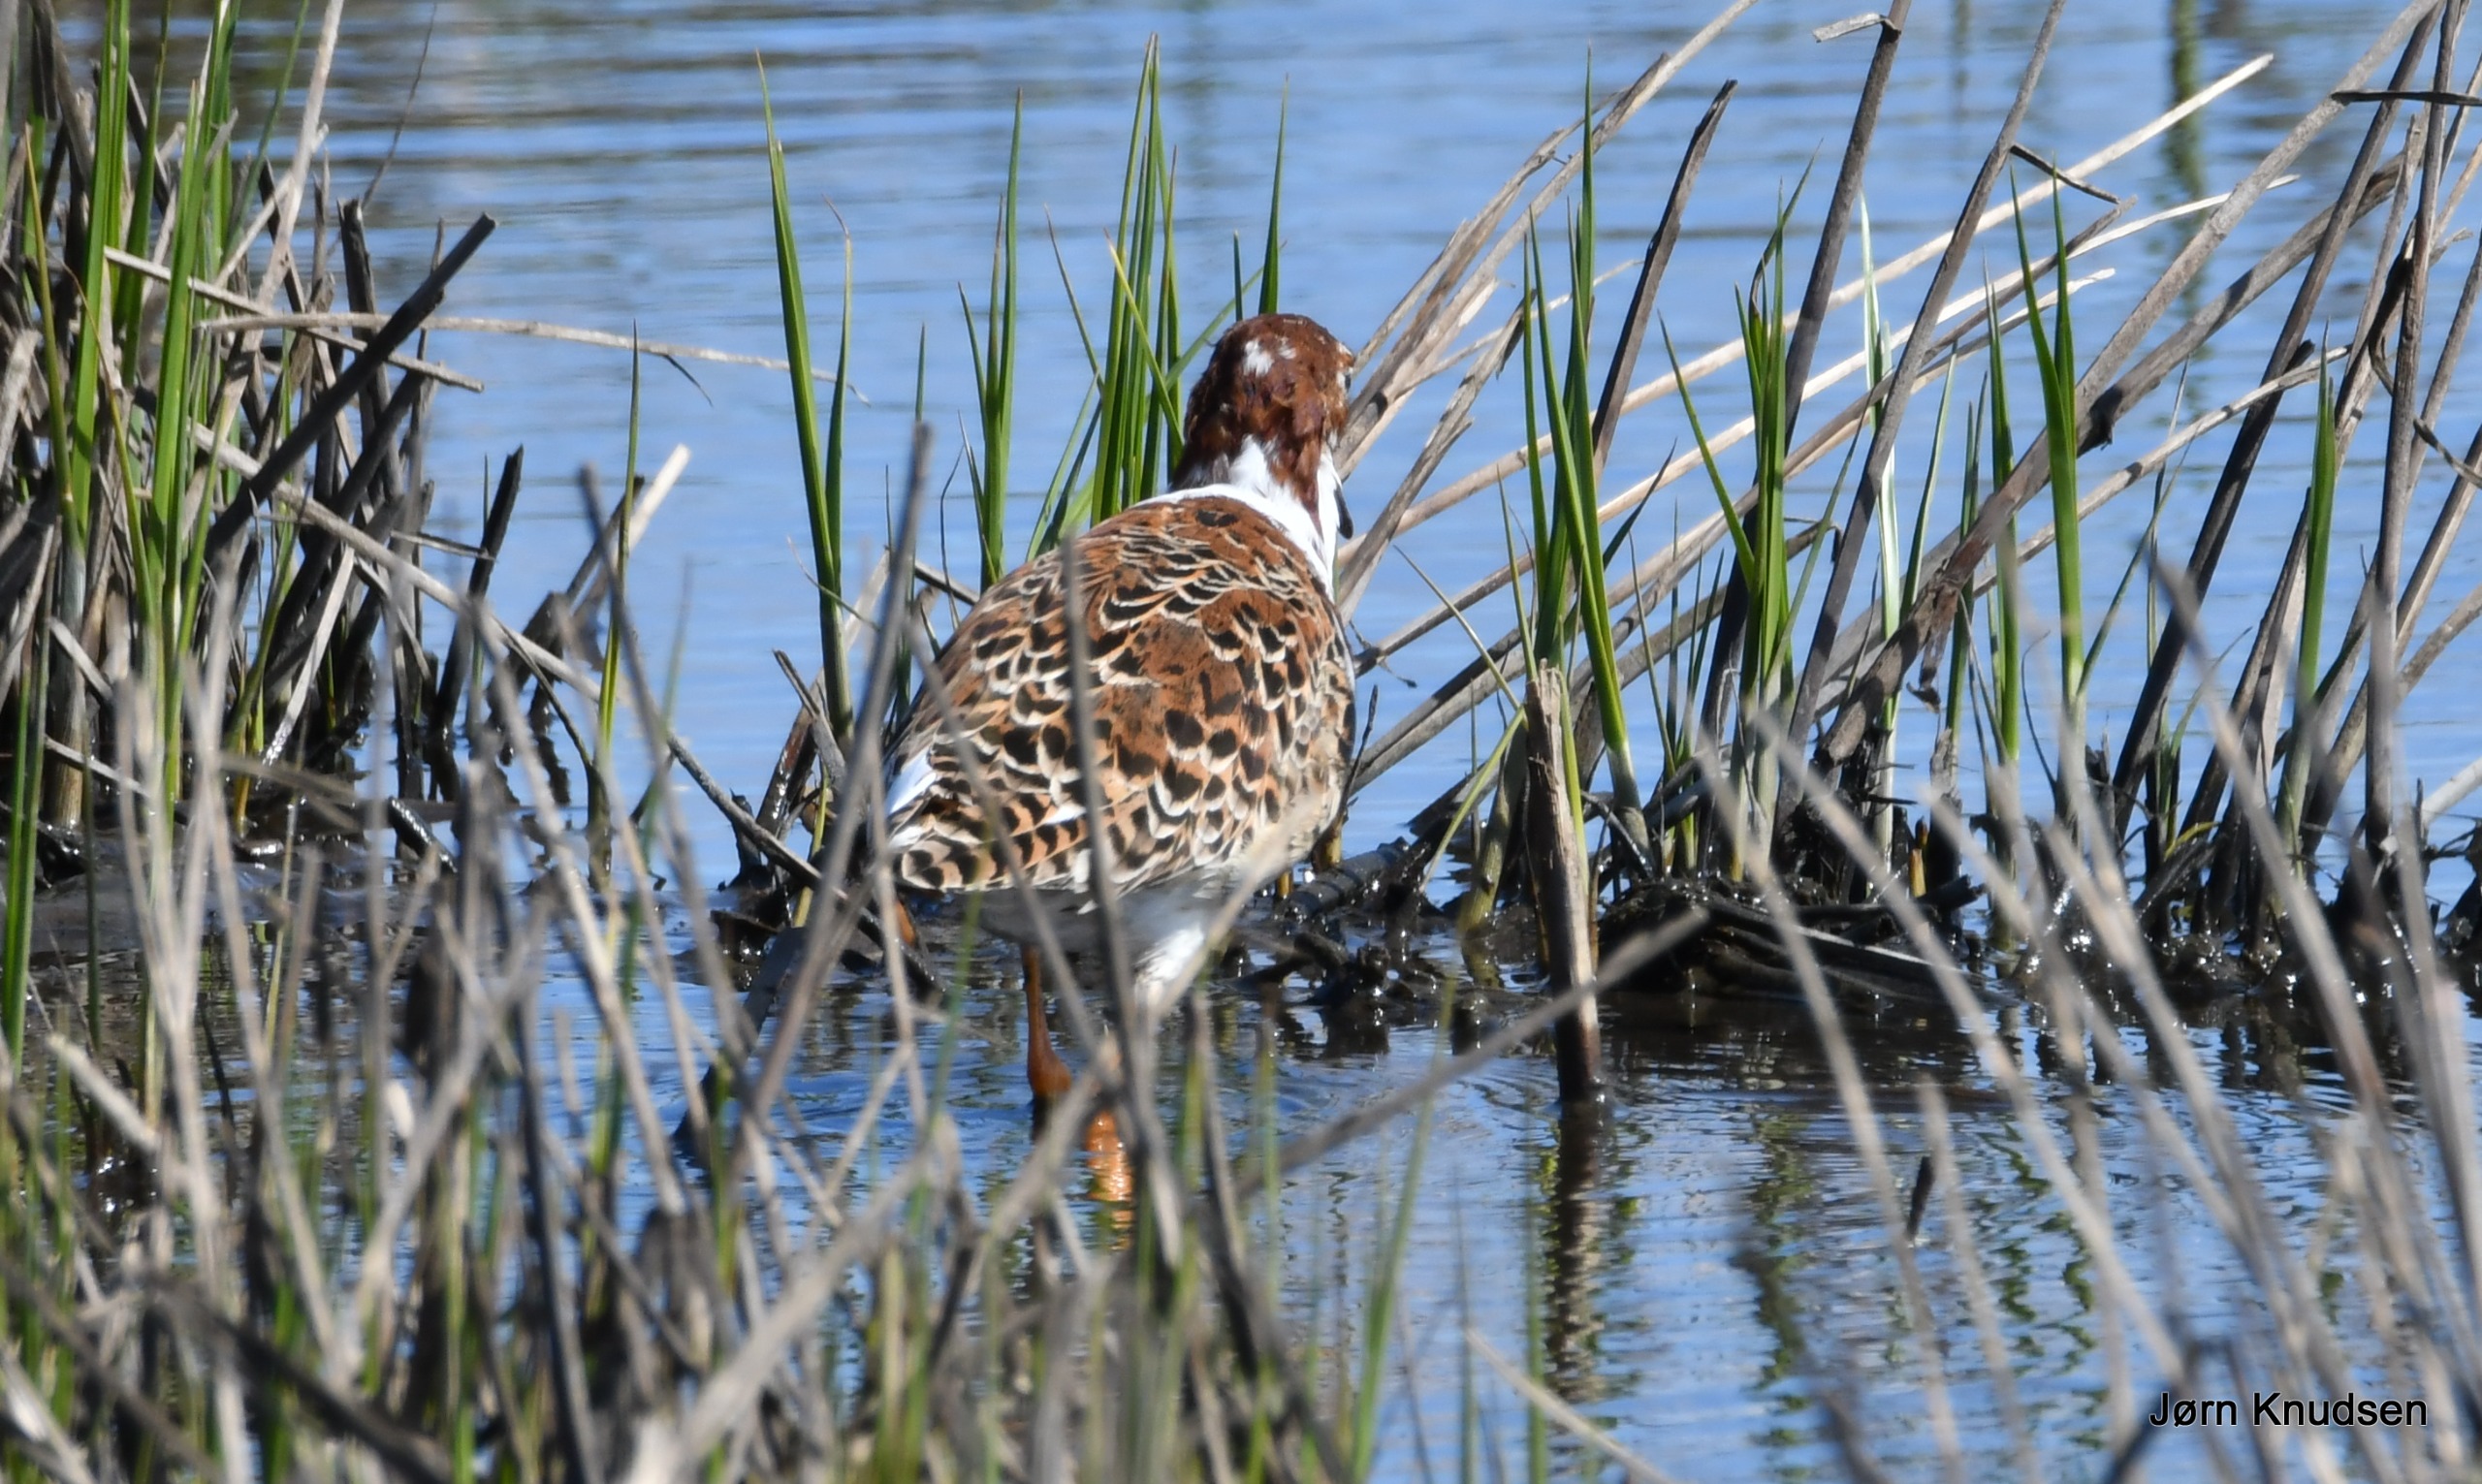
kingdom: Animalia
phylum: Chordata
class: Aves
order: Charadriiformes
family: Scolopacidae
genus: Calidris
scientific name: Calidris pugnax
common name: Brushane
